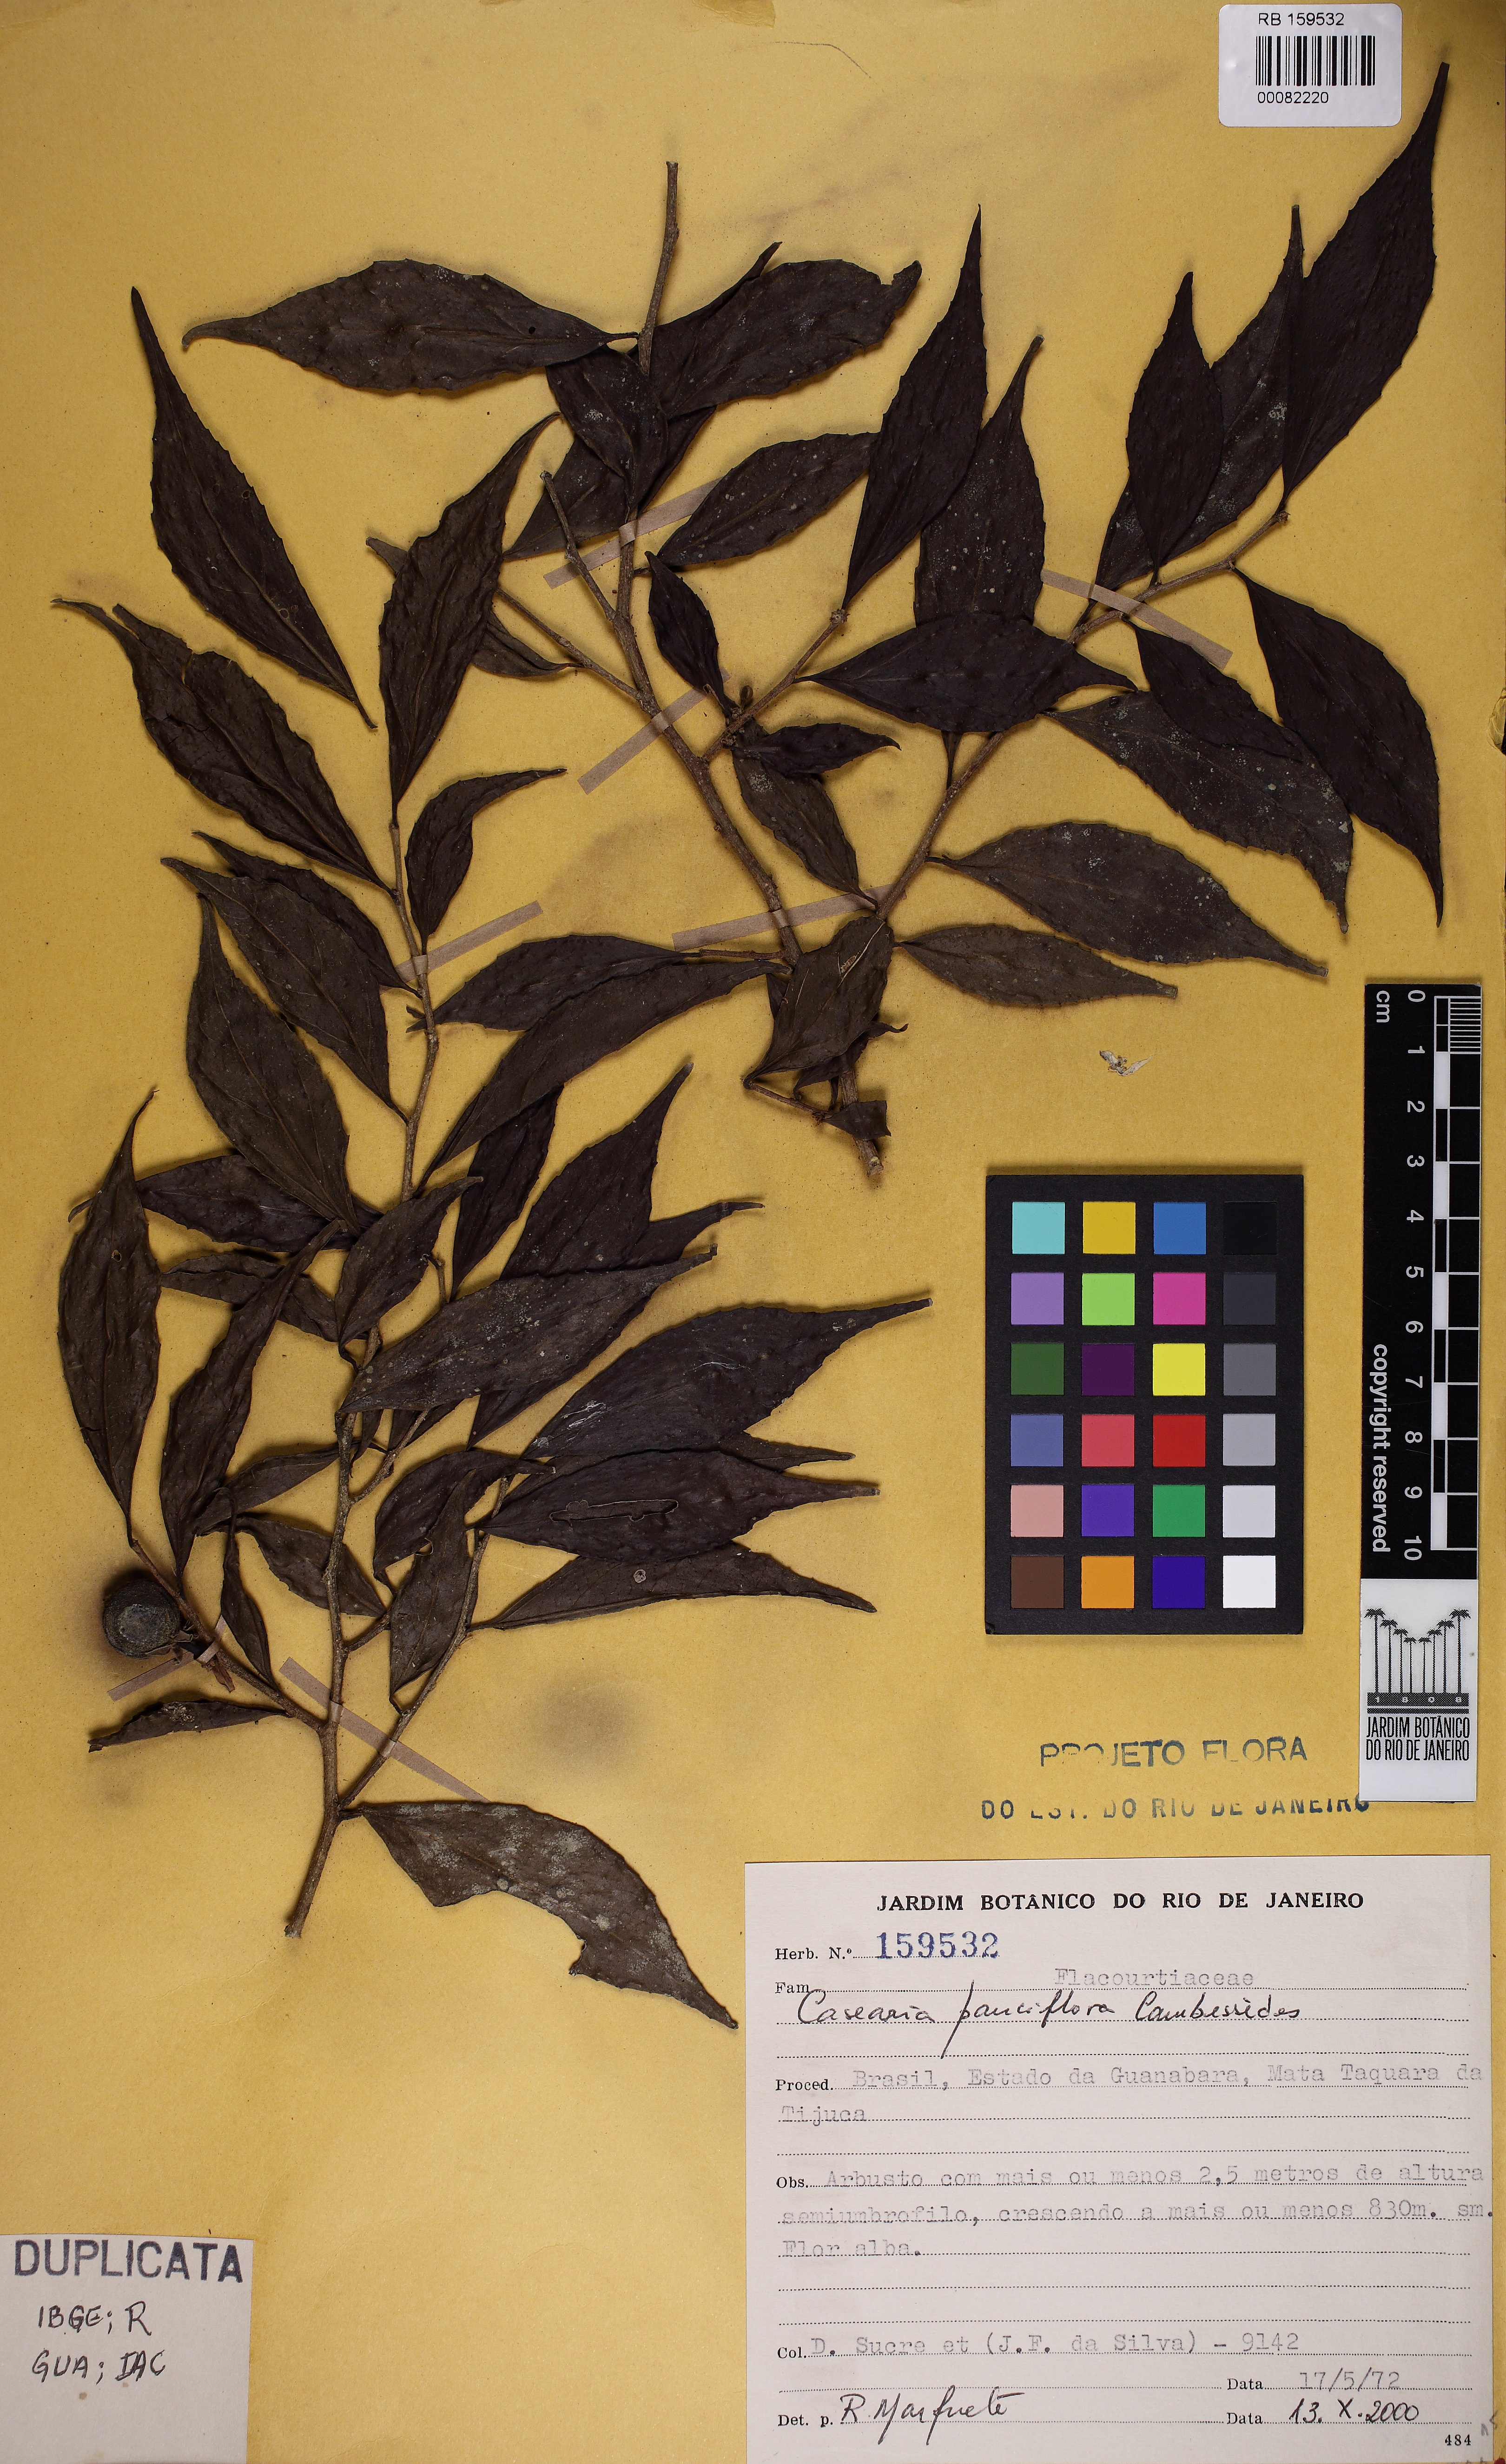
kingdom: Plantae
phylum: Tracheophyta
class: Magnoliopsida
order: Malpighiales
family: Salicaceae
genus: Casearia
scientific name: Casearia pauciflora
